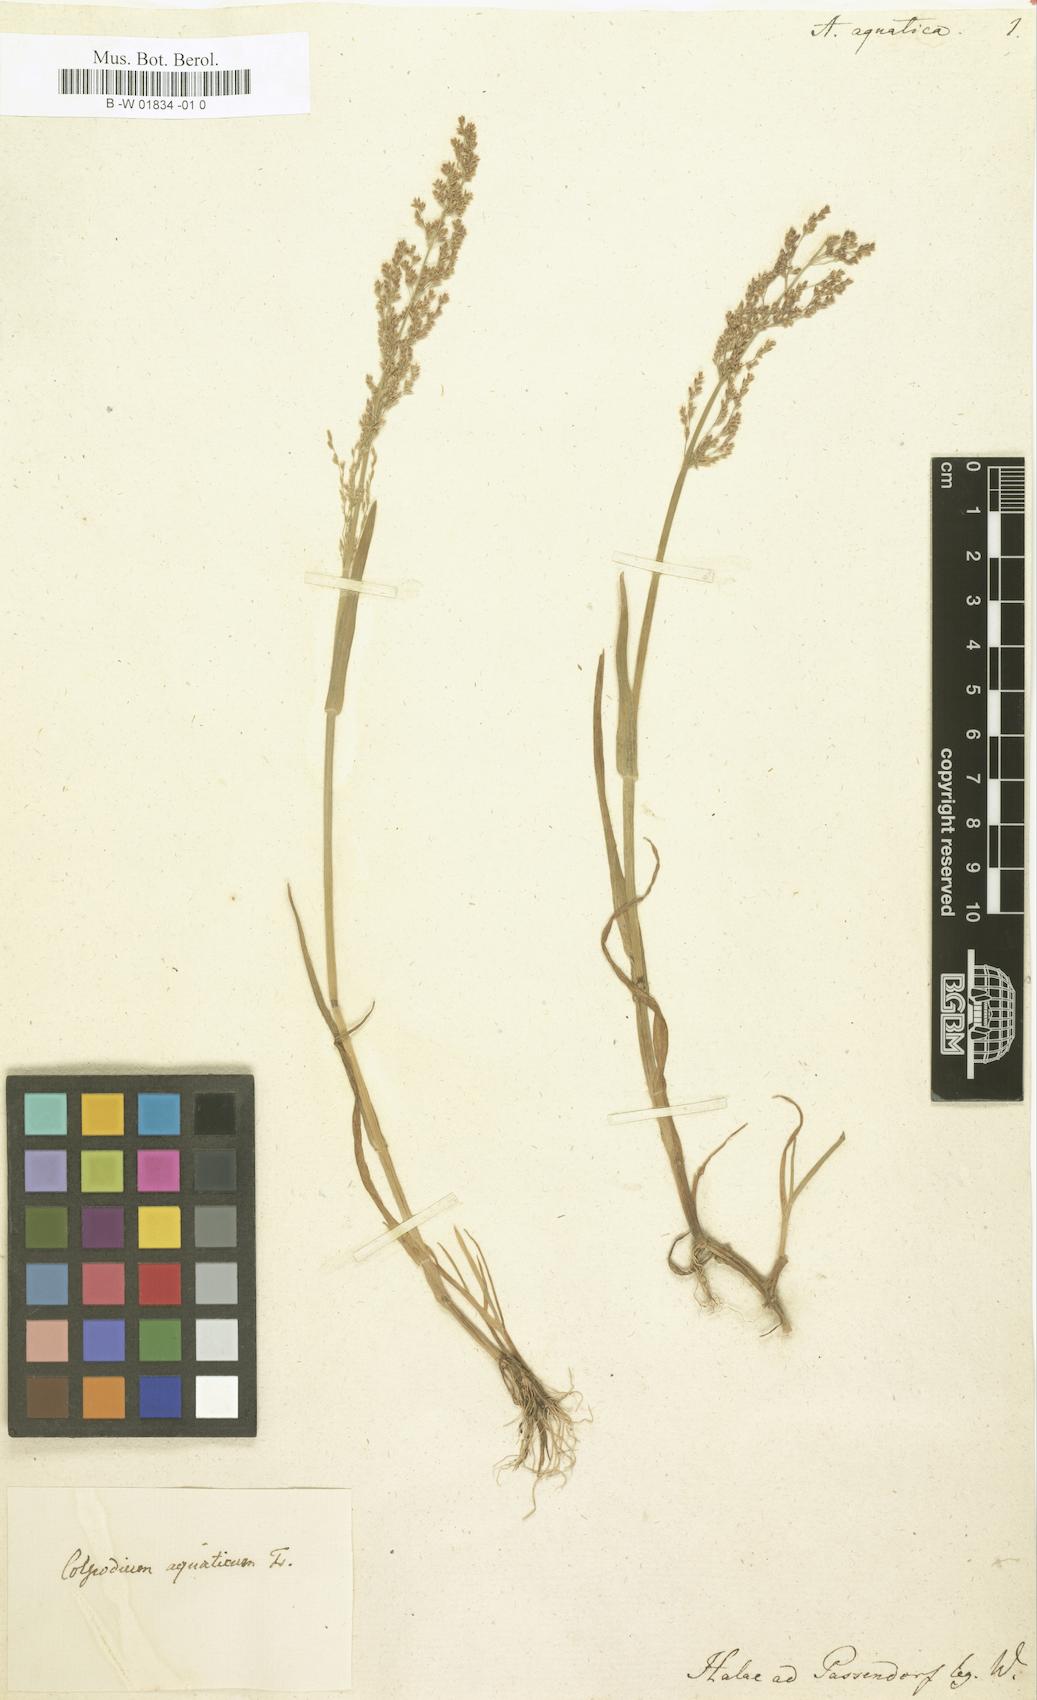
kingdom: Plantae
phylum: Tracheophyta
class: Liliopsida
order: Poales
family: Poaceae
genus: Catabrosa
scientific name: Catabrosa aquatica
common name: Whorl-grass
